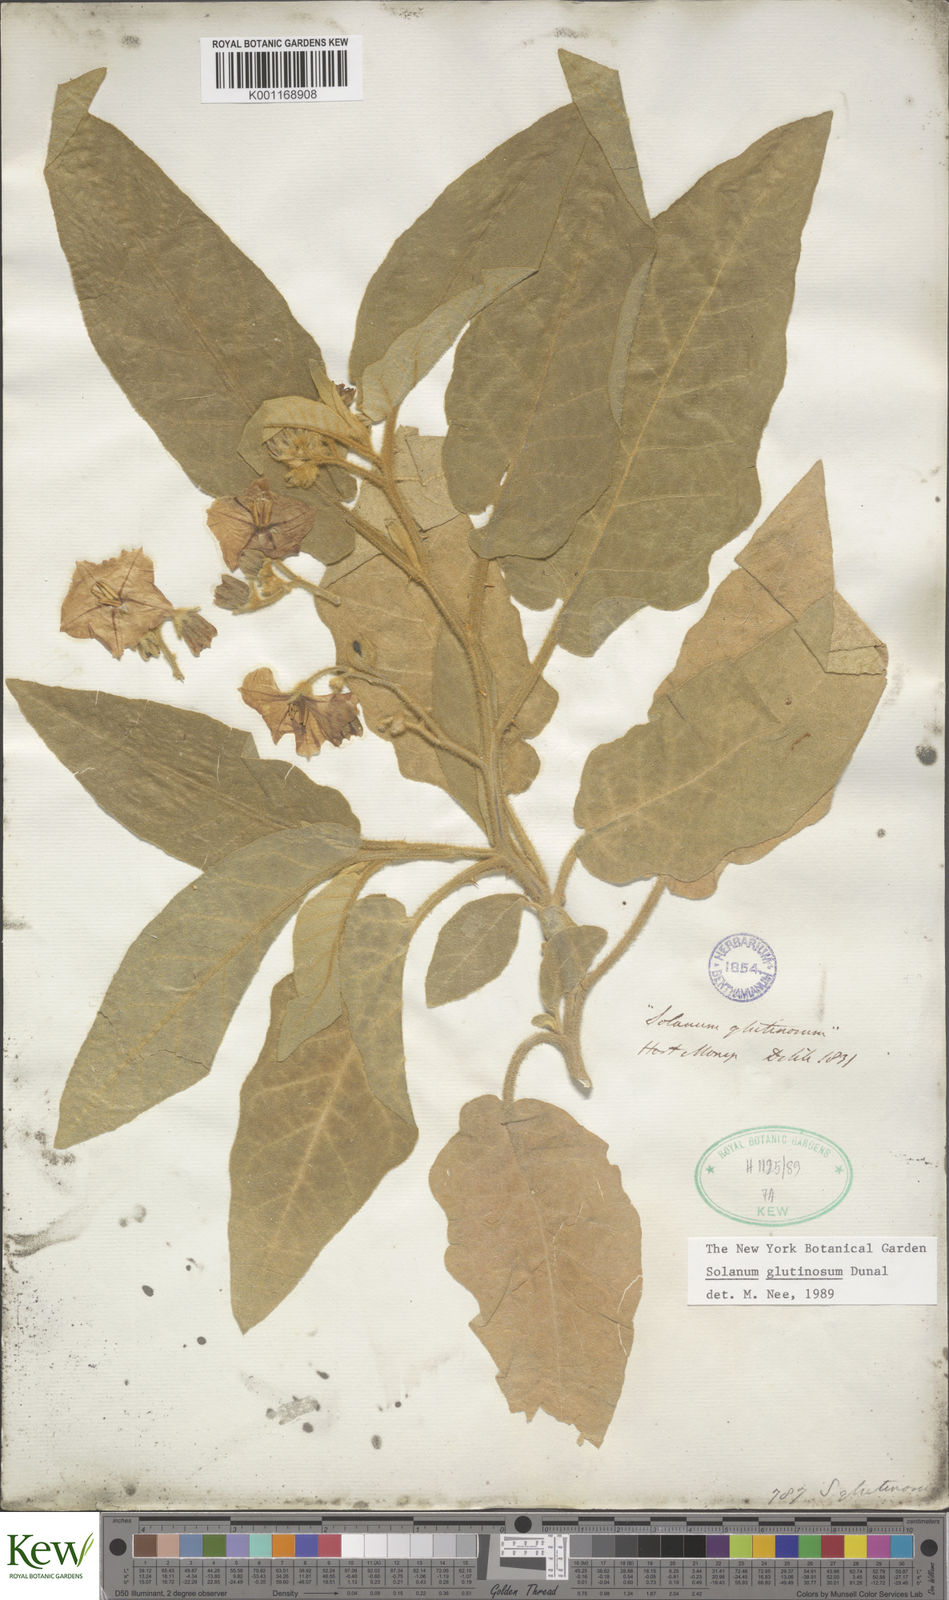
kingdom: Plantae
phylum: Tracheophyta
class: Magnoliopsida
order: Solanales
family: Solanaceae
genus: Solanum
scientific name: Solanum glutinosum
